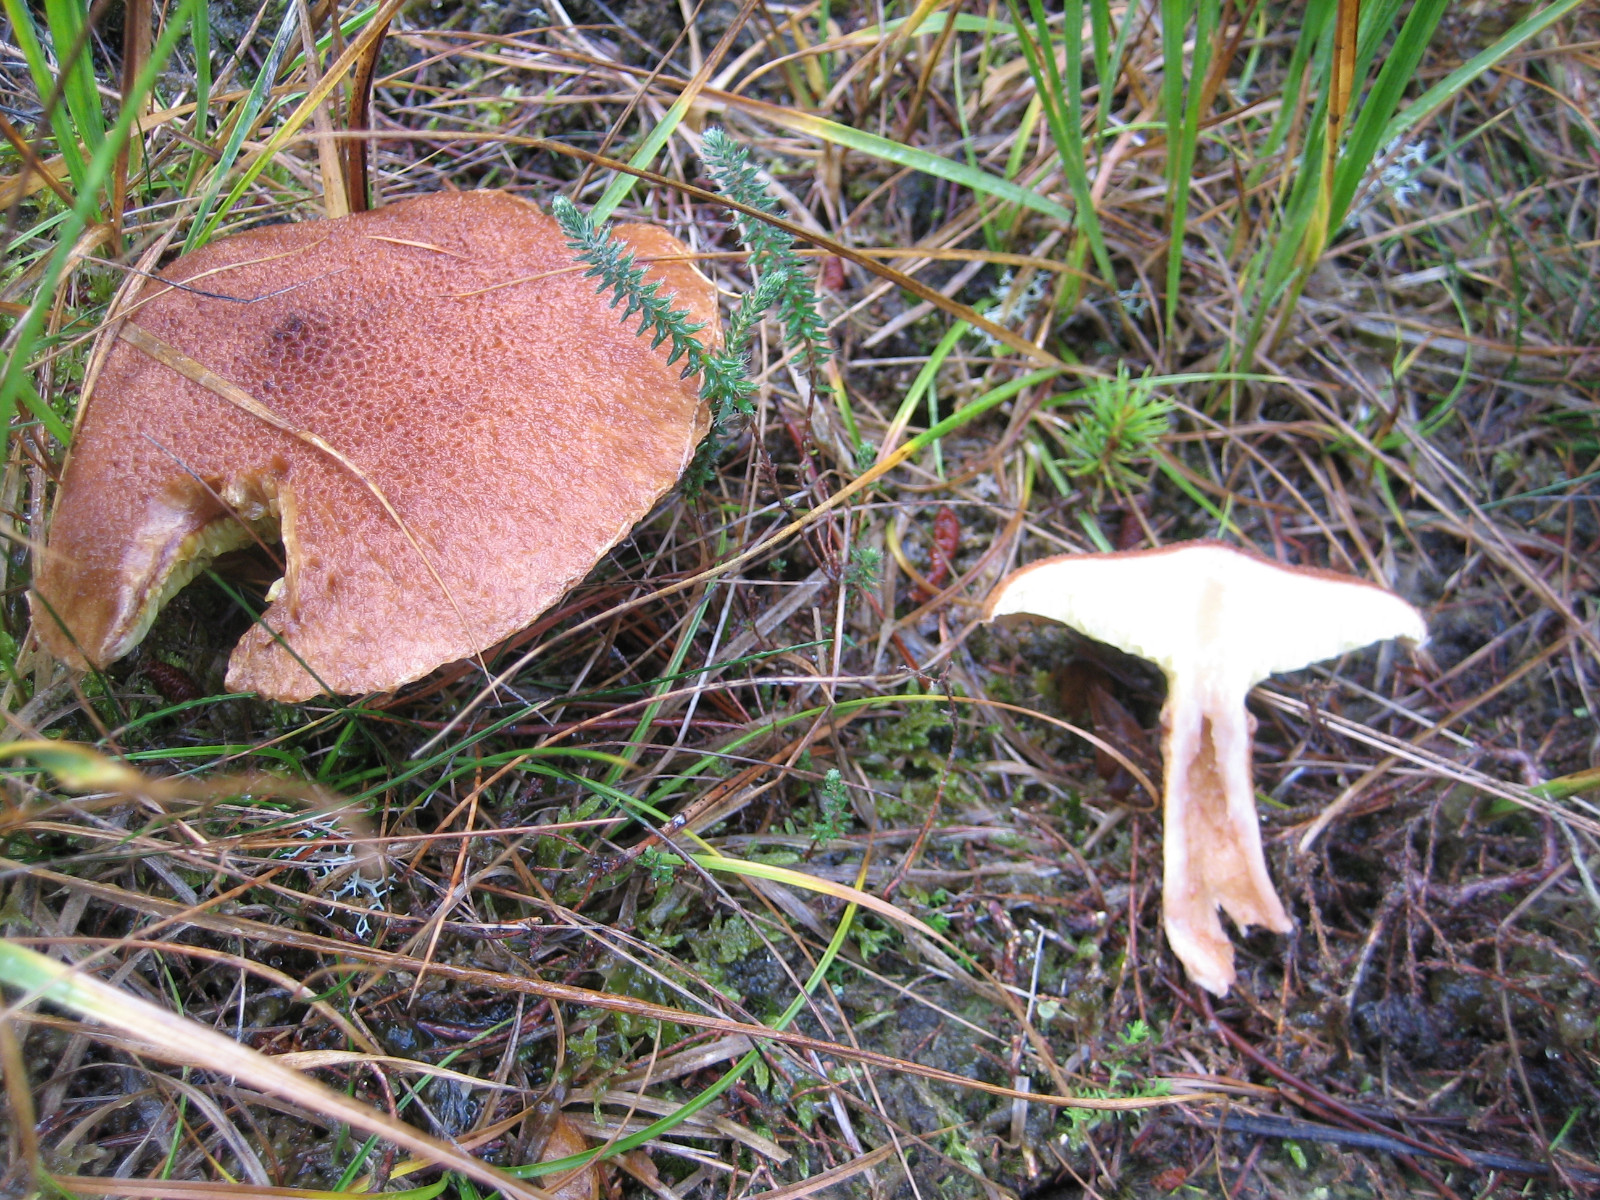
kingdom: Fungi
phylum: Basidiomycota
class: Agaricomycetes
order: Boletales
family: Suillaceae
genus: Suillus
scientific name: Suillus cavipes
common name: hulstokket slimrørhat
